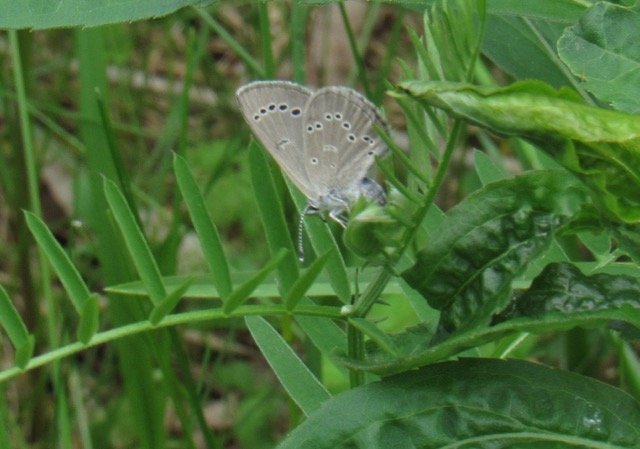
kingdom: Animalia
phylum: Arthropoda
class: Insecta
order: Lepidoptera
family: Lycaenidae
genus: Glaucopsyche
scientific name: Glaucopsyche lygdamus
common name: Silvery Blue
